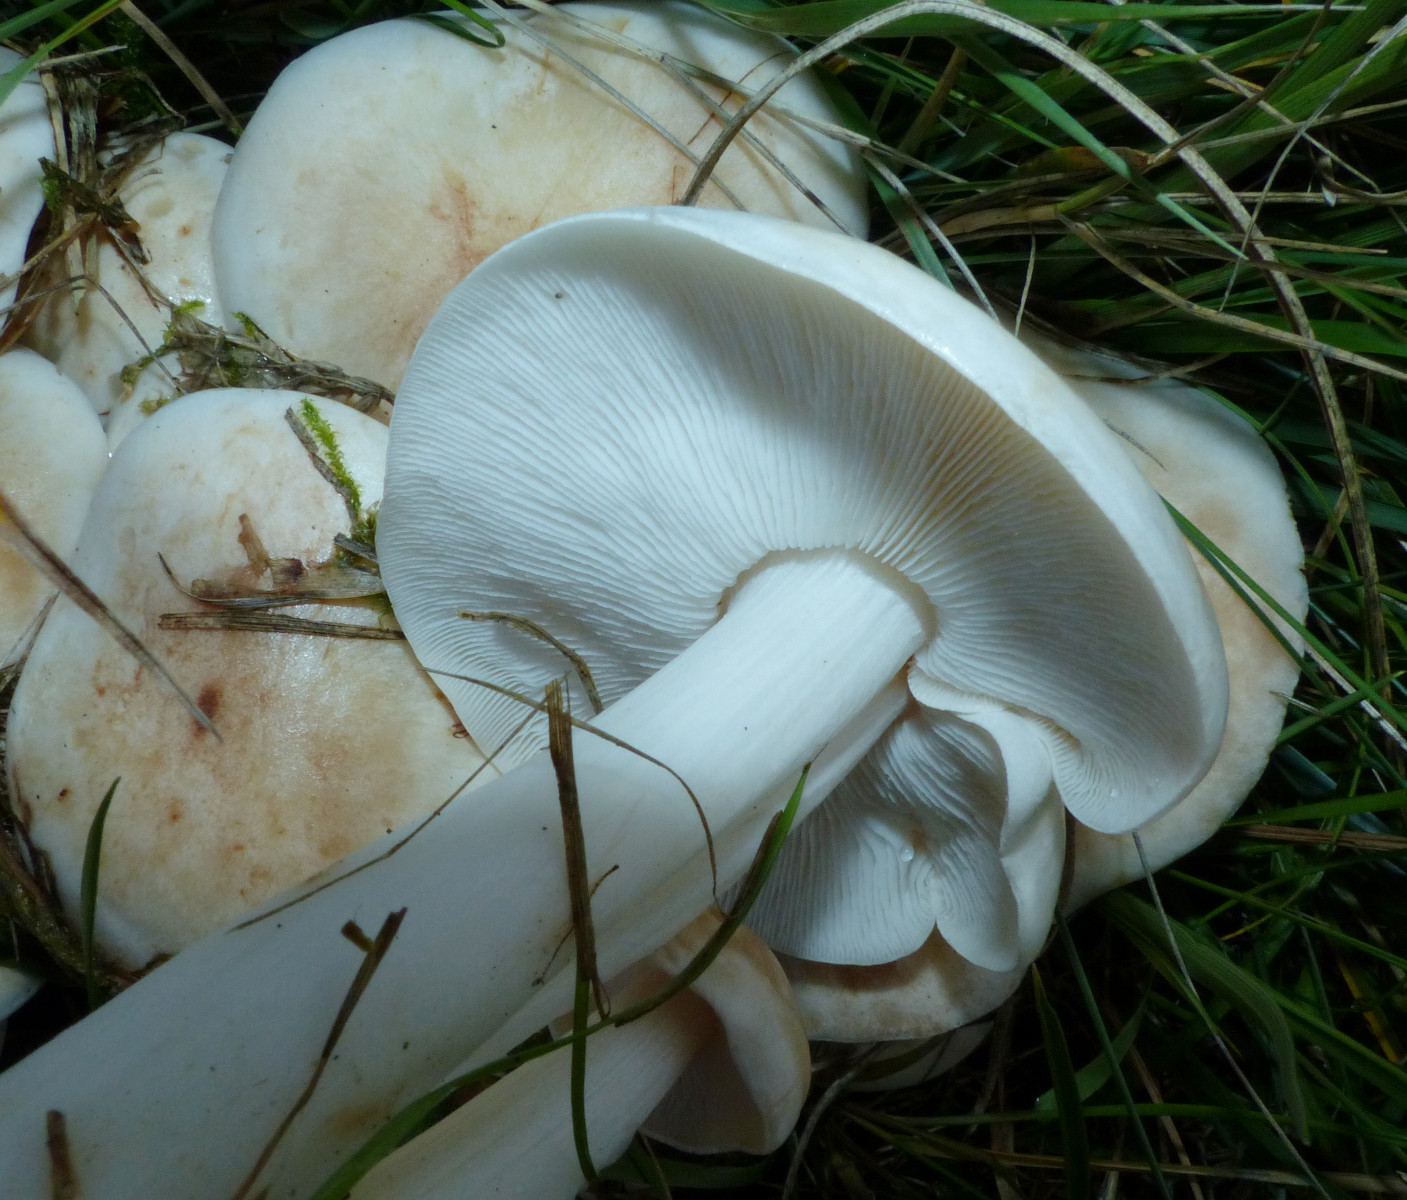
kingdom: Fungi
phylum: Basidiomycota
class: Agaricomycetes
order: Agaricales
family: Omphalotaceae
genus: Rhodocollybia
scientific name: Rhodocollybia maculata
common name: plettet fladhat
